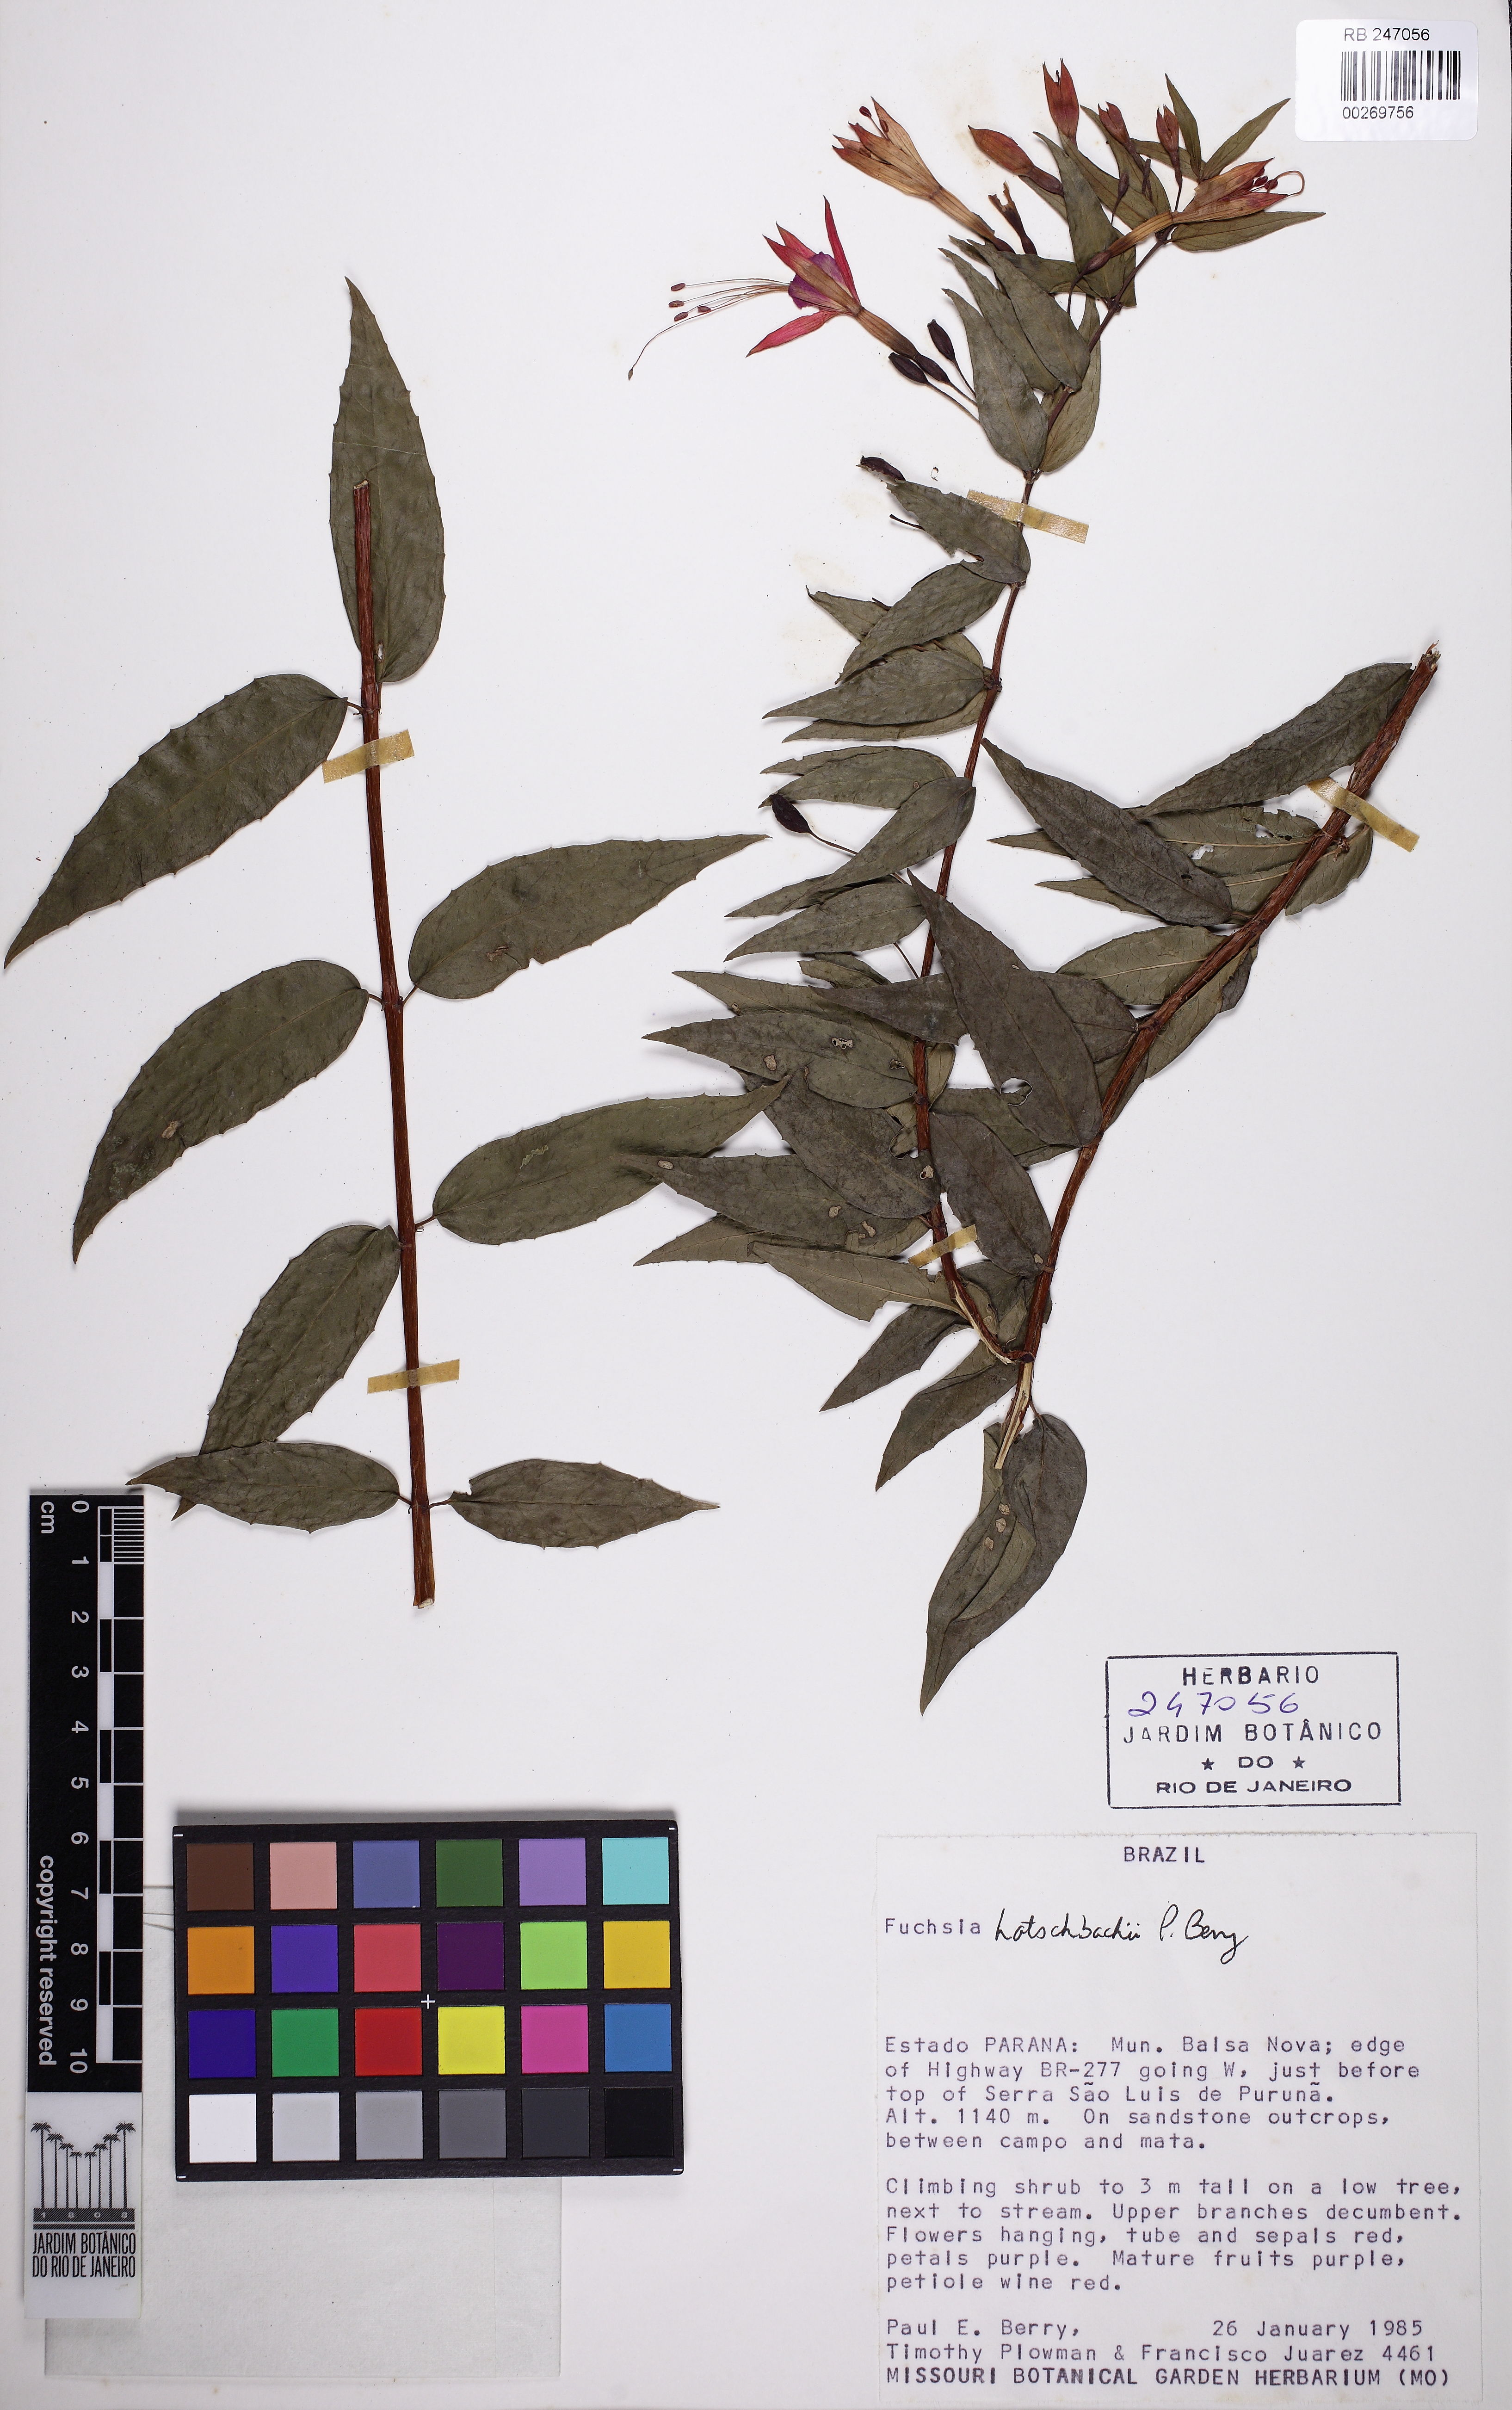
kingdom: Plantae
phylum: Tracheophyta
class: Magnoliopsida
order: Myrtales
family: Onagraceae
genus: Fuchsia
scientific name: Fuchsia hatschbachii
